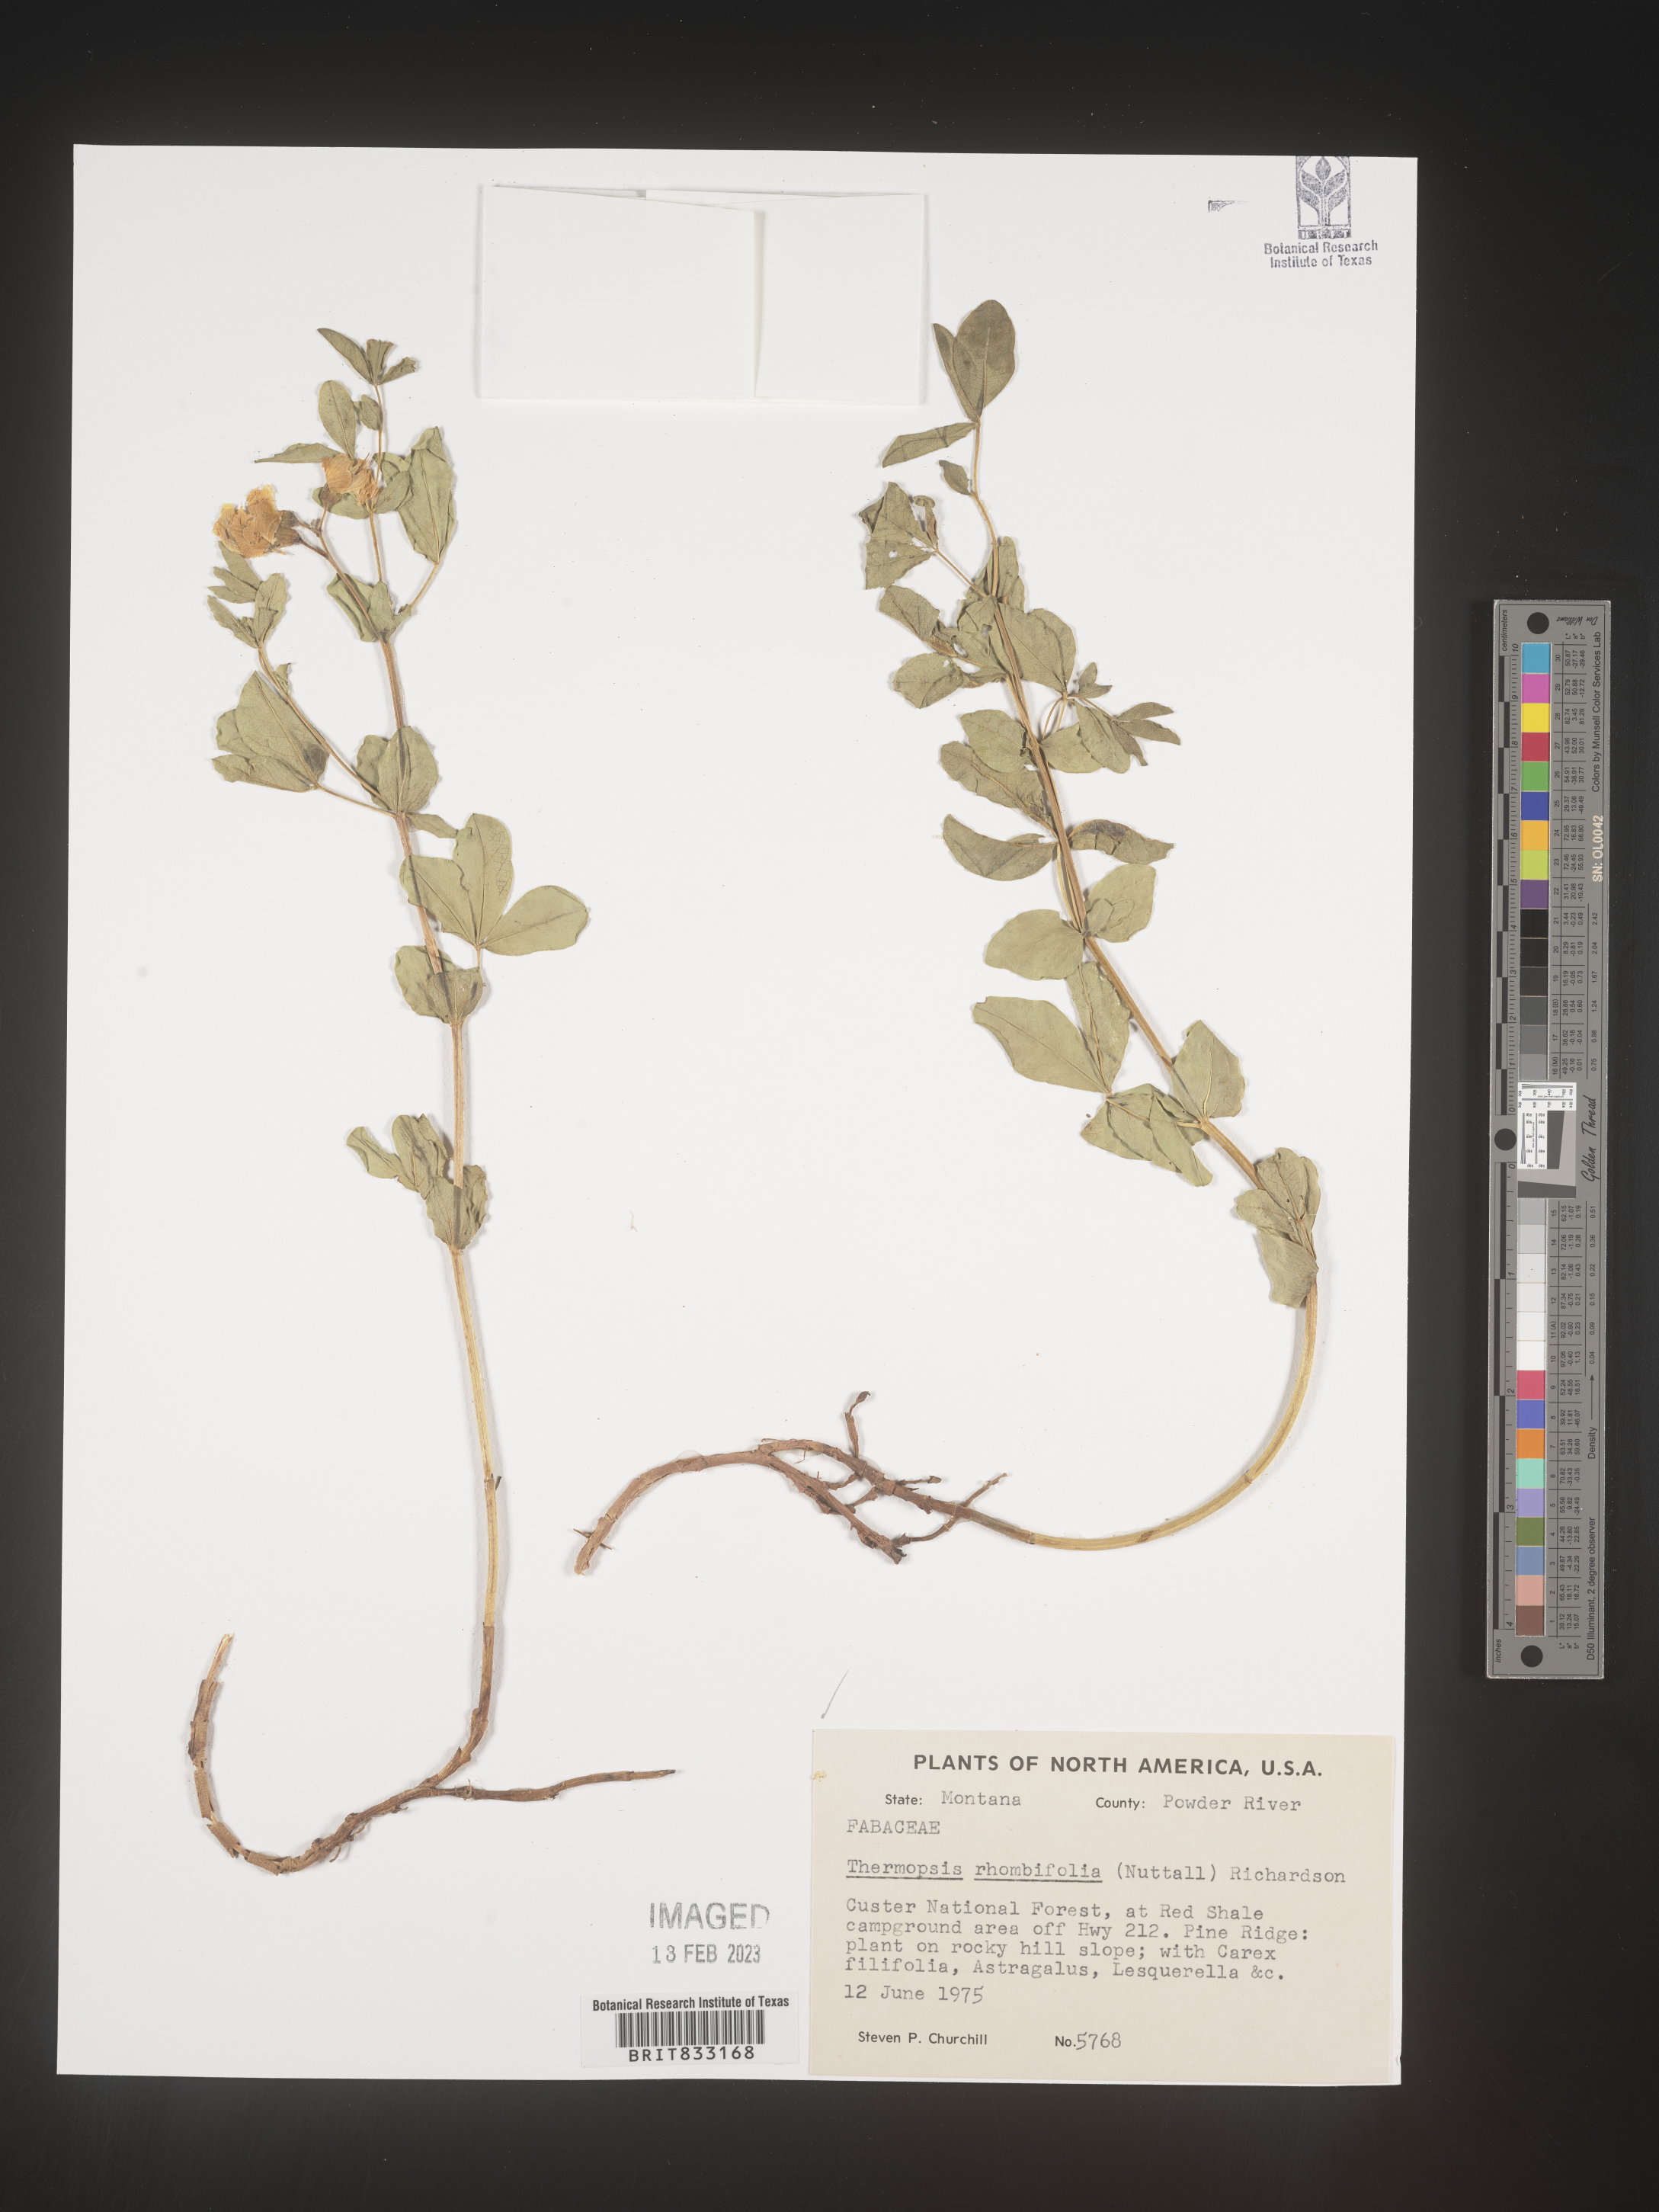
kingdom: Plantae
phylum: Tracheophyta
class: Magnoliopsida
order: Fabales
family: Fabaceae
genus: Thermopsis
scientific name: Thermopsis rhombifolia
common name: Circle-pod-pea
